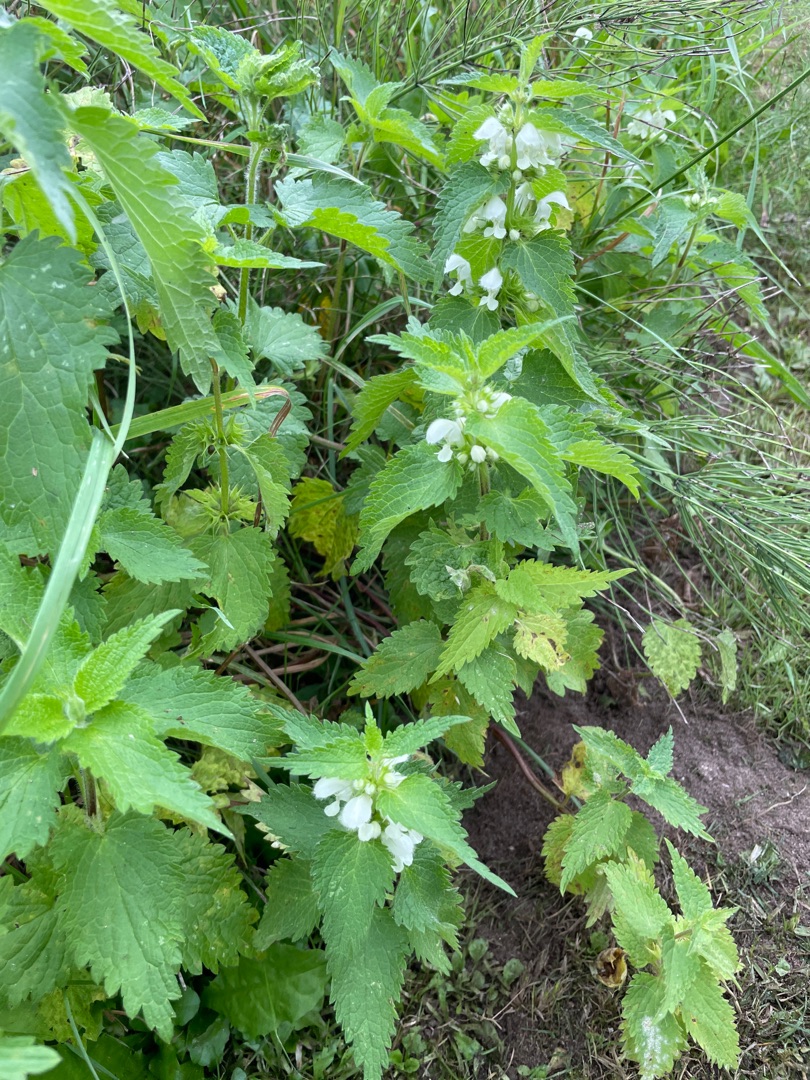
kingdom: Plantae
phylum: Tracheophyta
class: Magnoliopsida
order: Lamiales
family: Lamiaceae
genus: Lamium
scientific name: Lamium album
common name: Døvnælde
